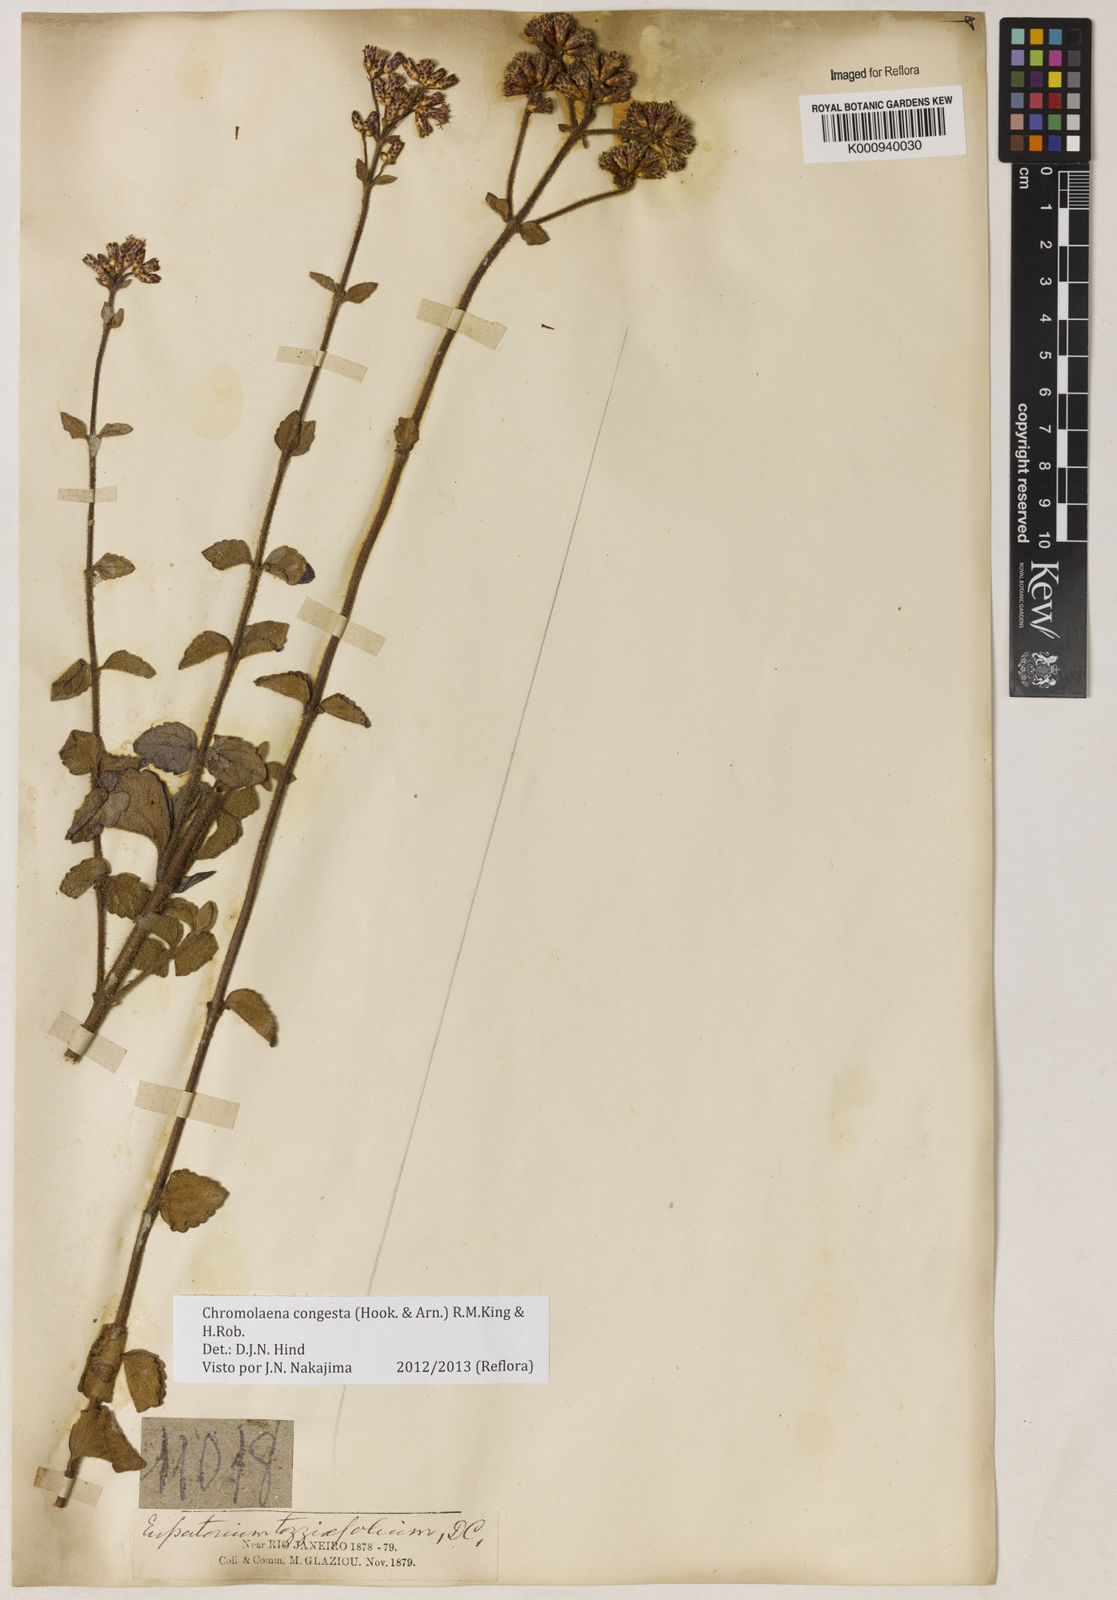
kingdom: Plantae
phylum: Tracheophyta
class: Magnoliopsida
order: Asterales
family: Asteraceae
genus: Chromolaena
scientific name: Chromolaena congesta
